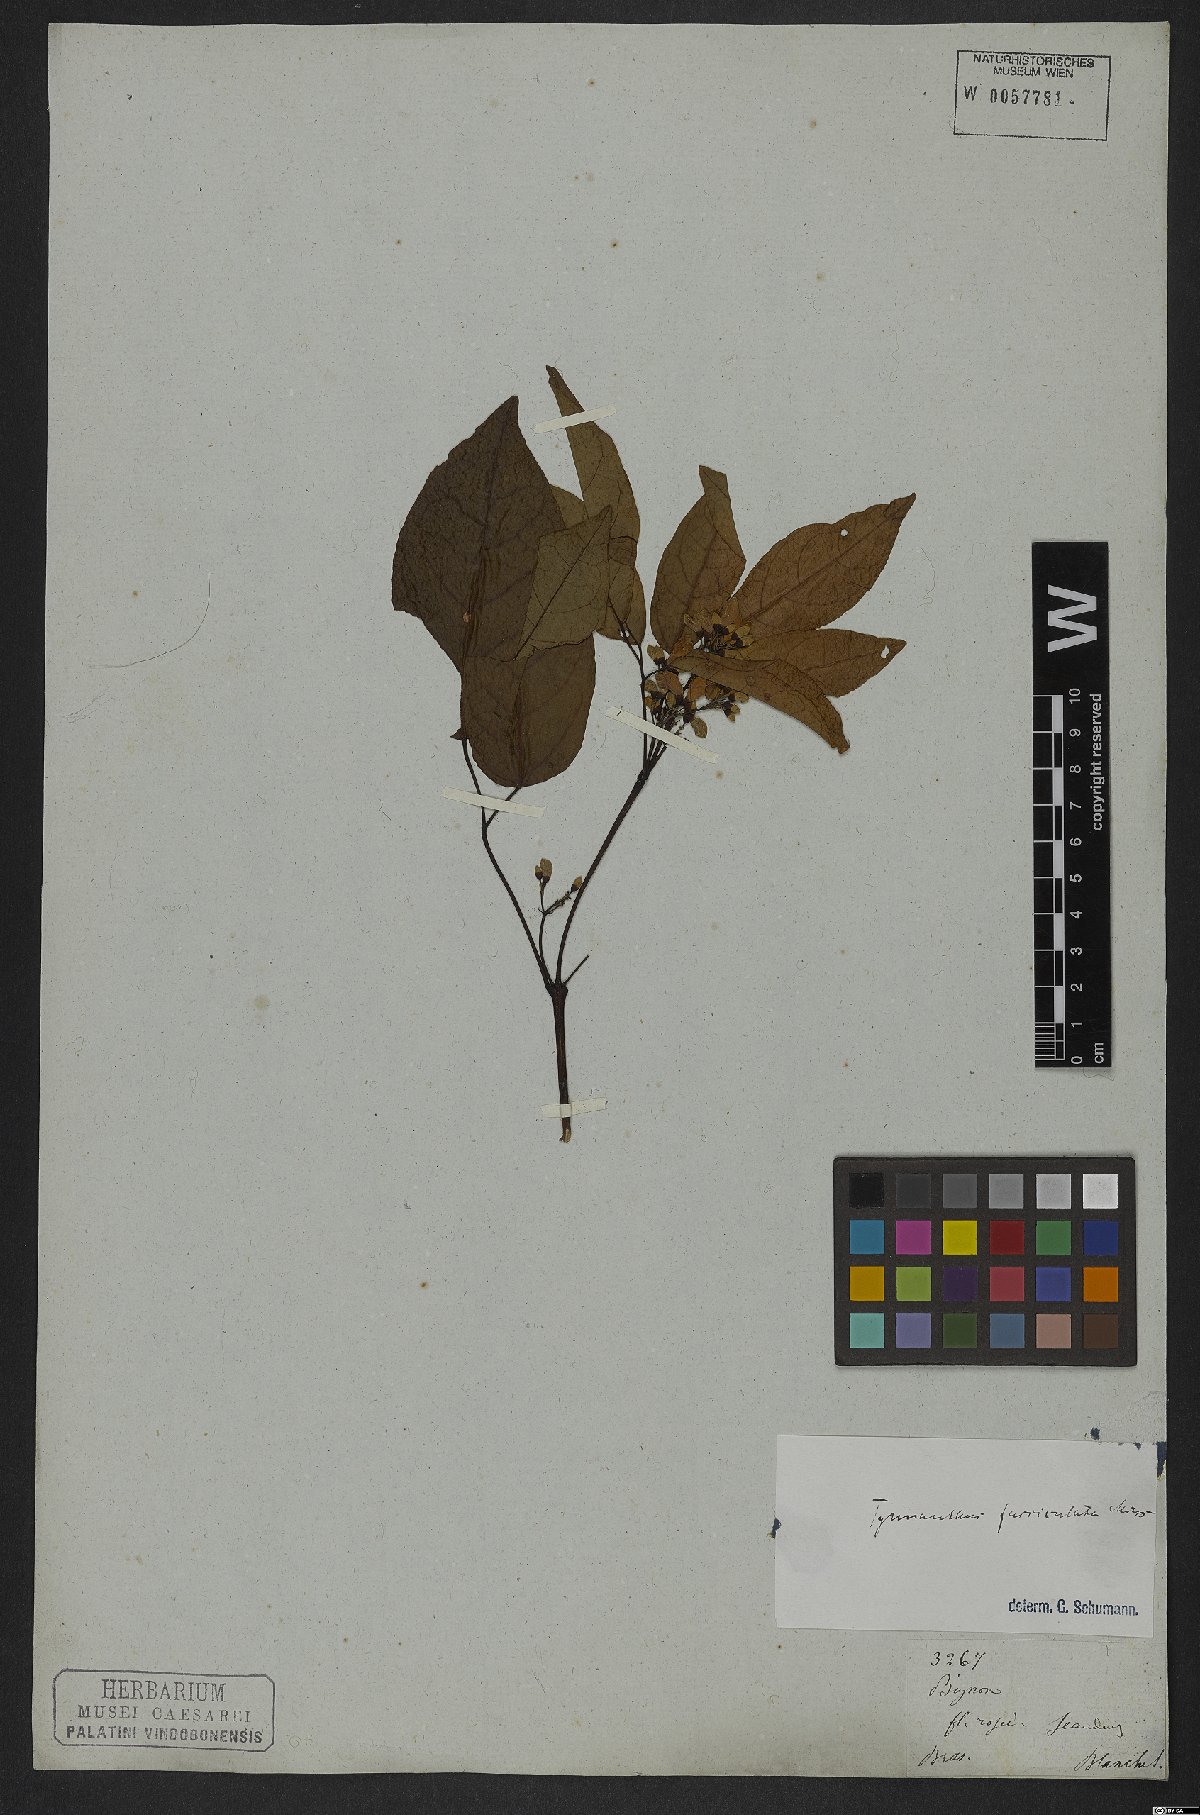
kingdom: Plantae
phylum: Tracheophyta
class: Magnoliopsida
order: Lamiales
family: Bignoniaceae
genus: Tynanthus
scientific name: Tynanthus fasciculatus
